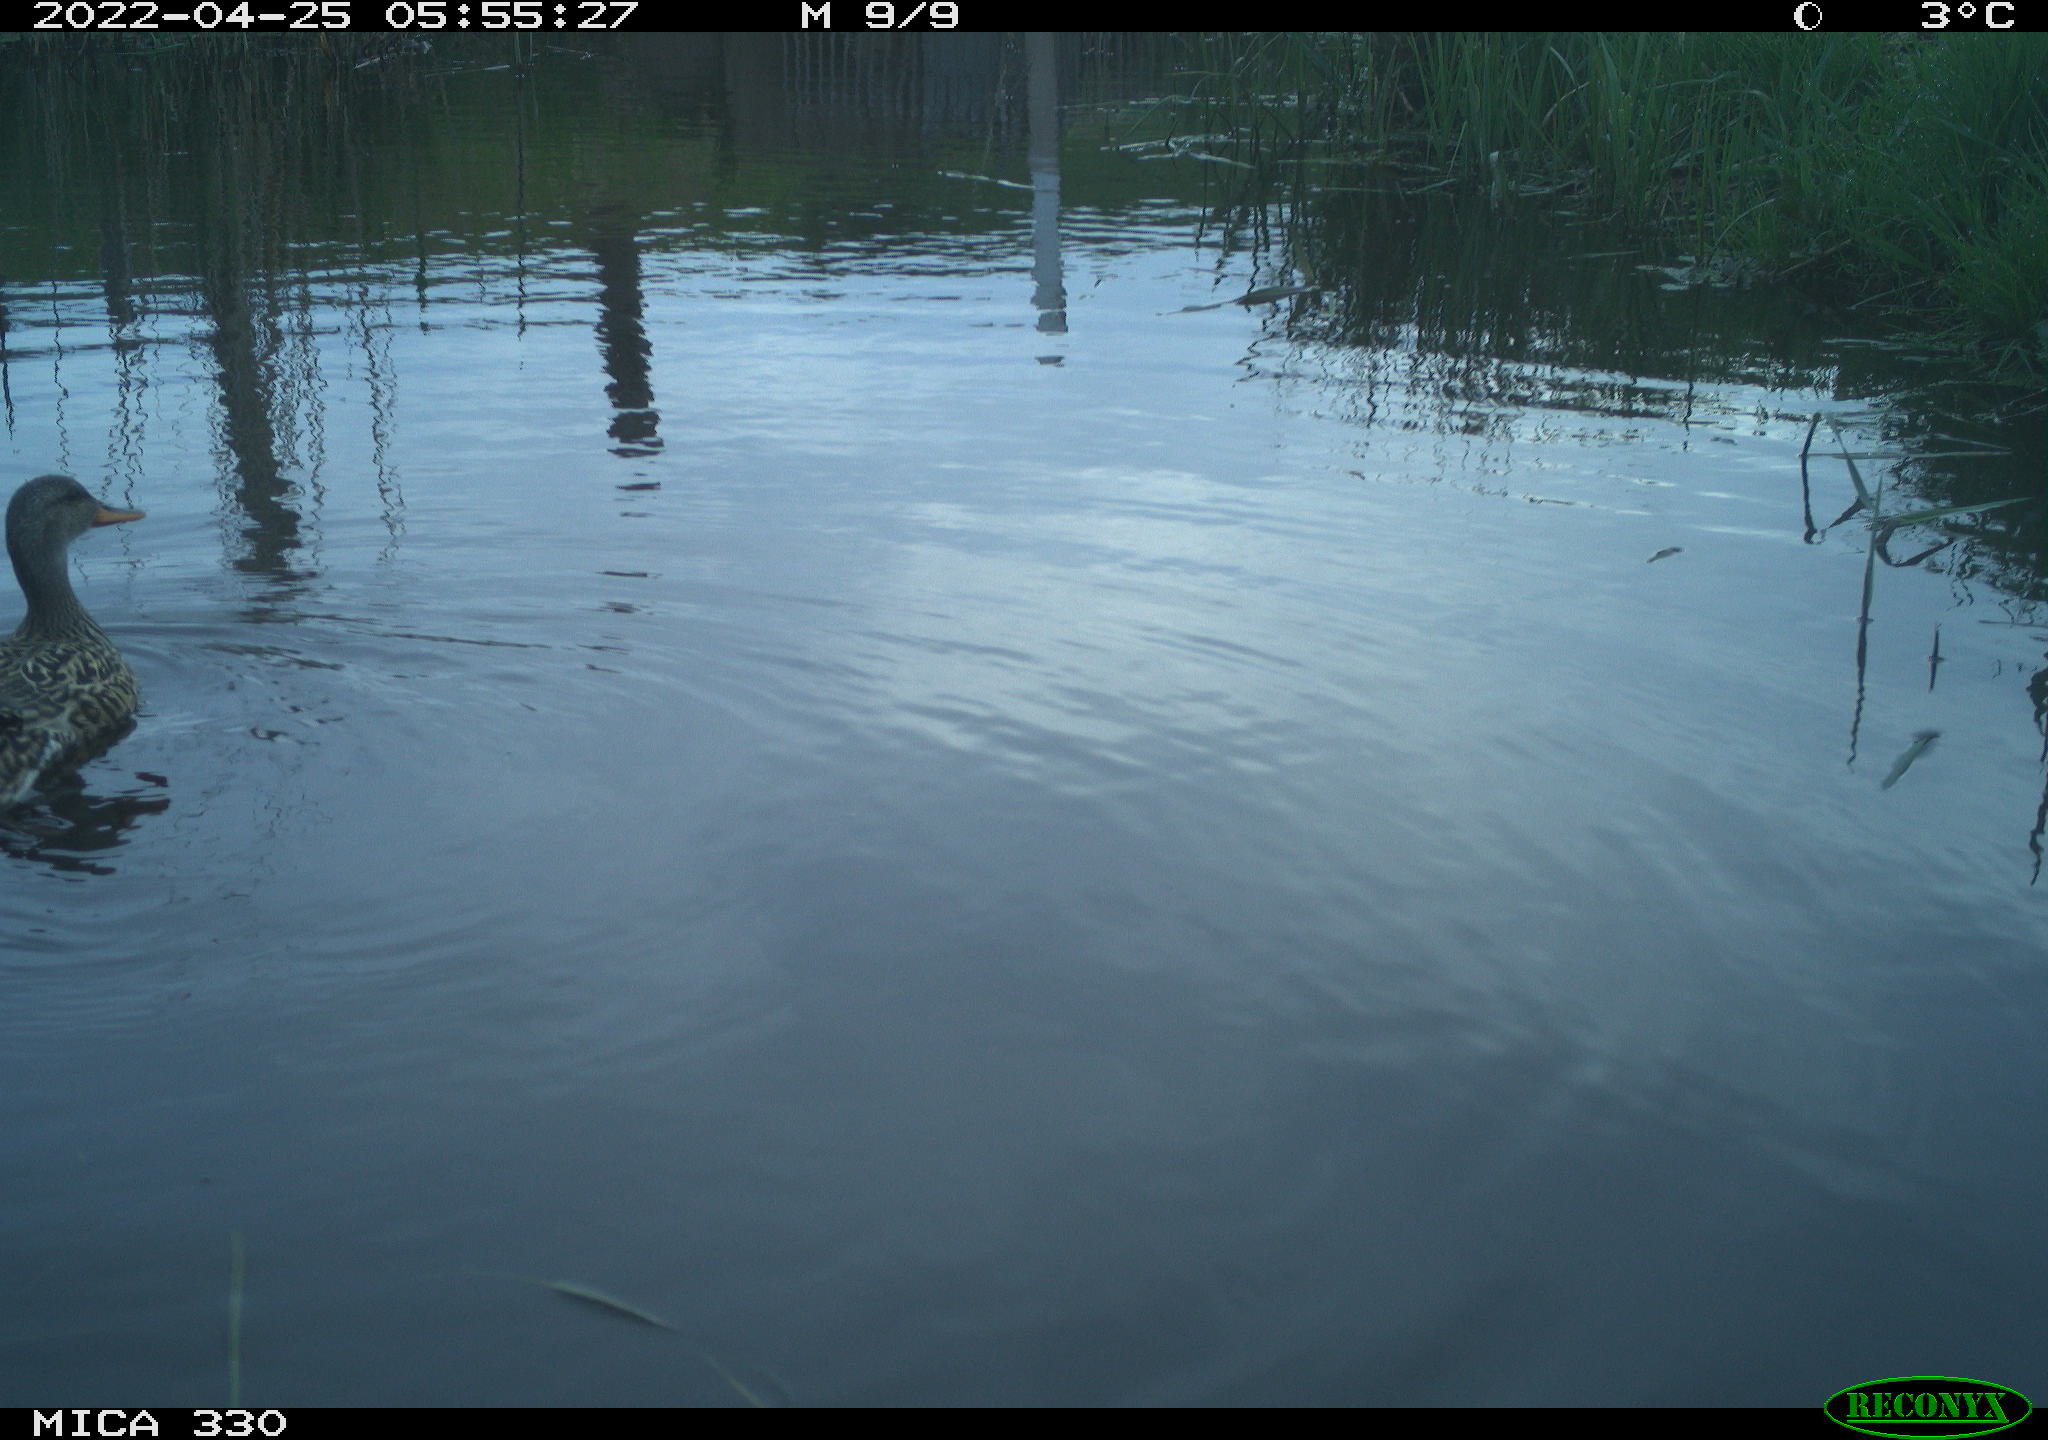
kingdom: Animalia
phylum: Chordata
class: Aves
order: Anseriformes
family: Anatidae
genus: Anas
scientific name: Anas platyrhynchos
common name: Mallard
